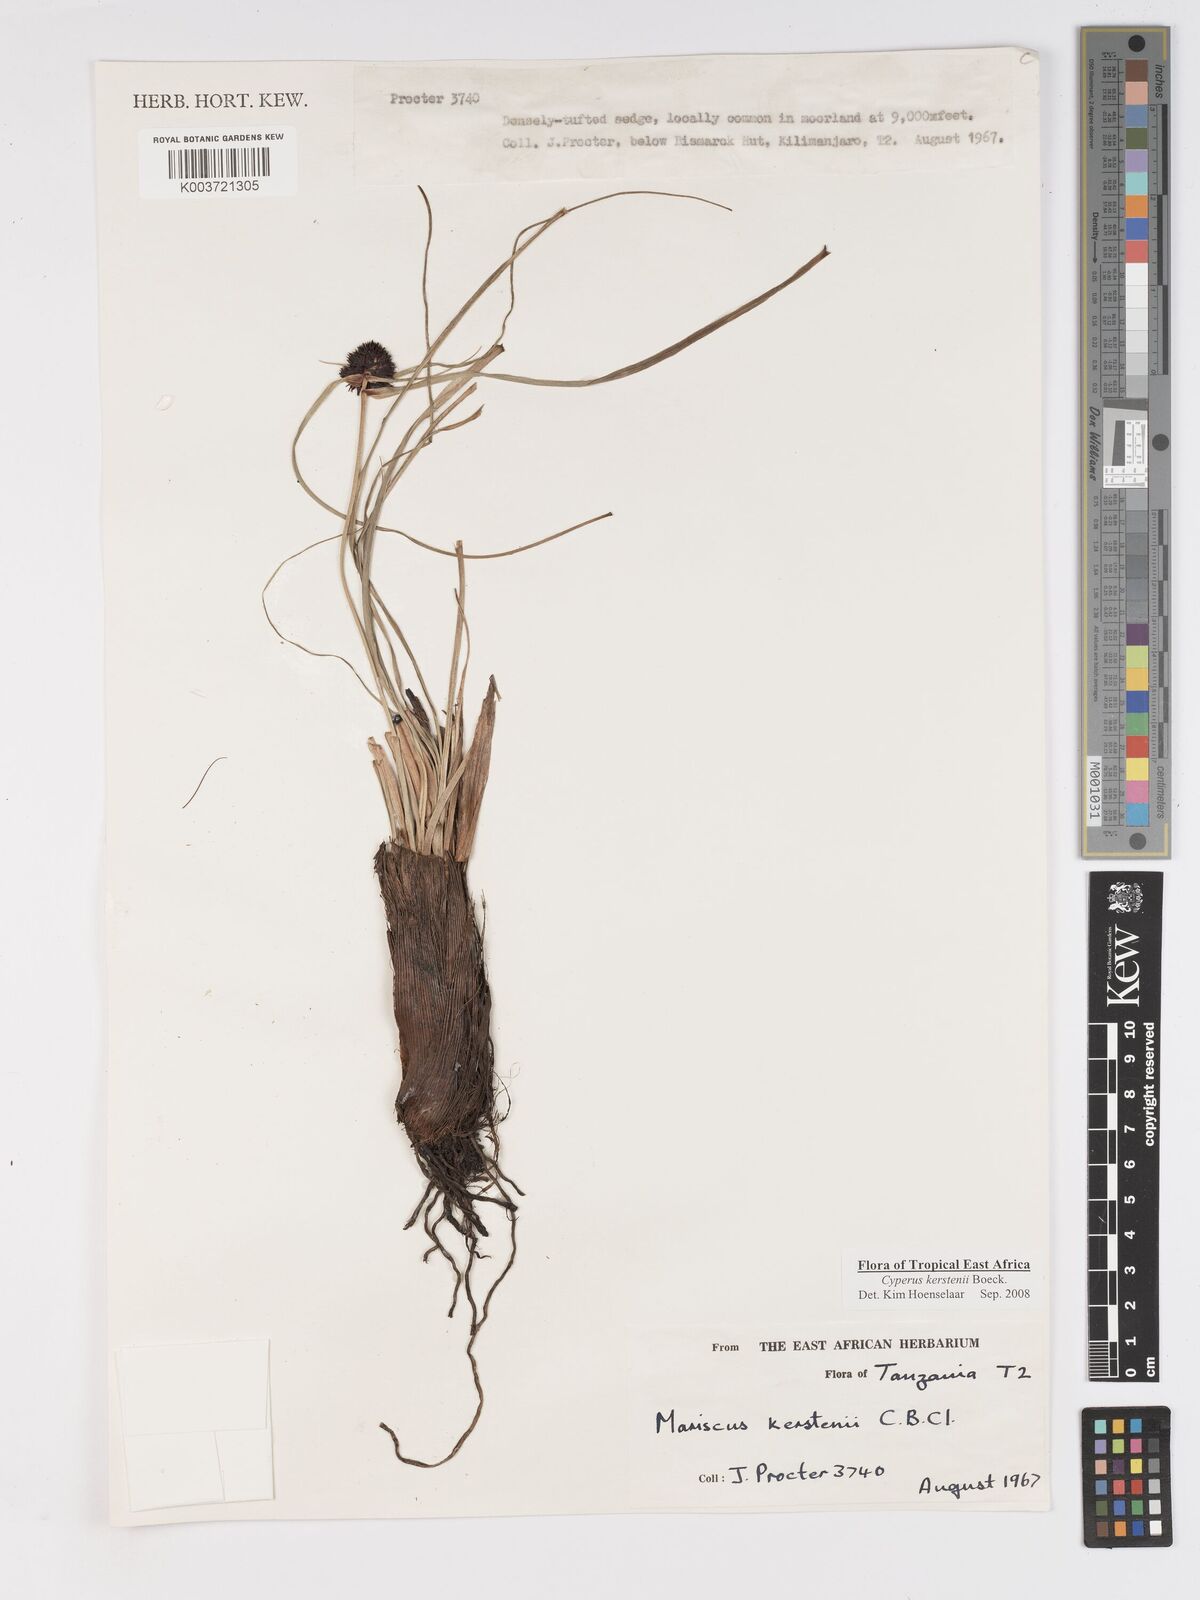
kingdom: Plantae
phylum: Tracheophyta
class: Liliopsida
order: Poales
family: Cyperaceae
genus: Cyperus
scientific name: Cyperus kerstenii
